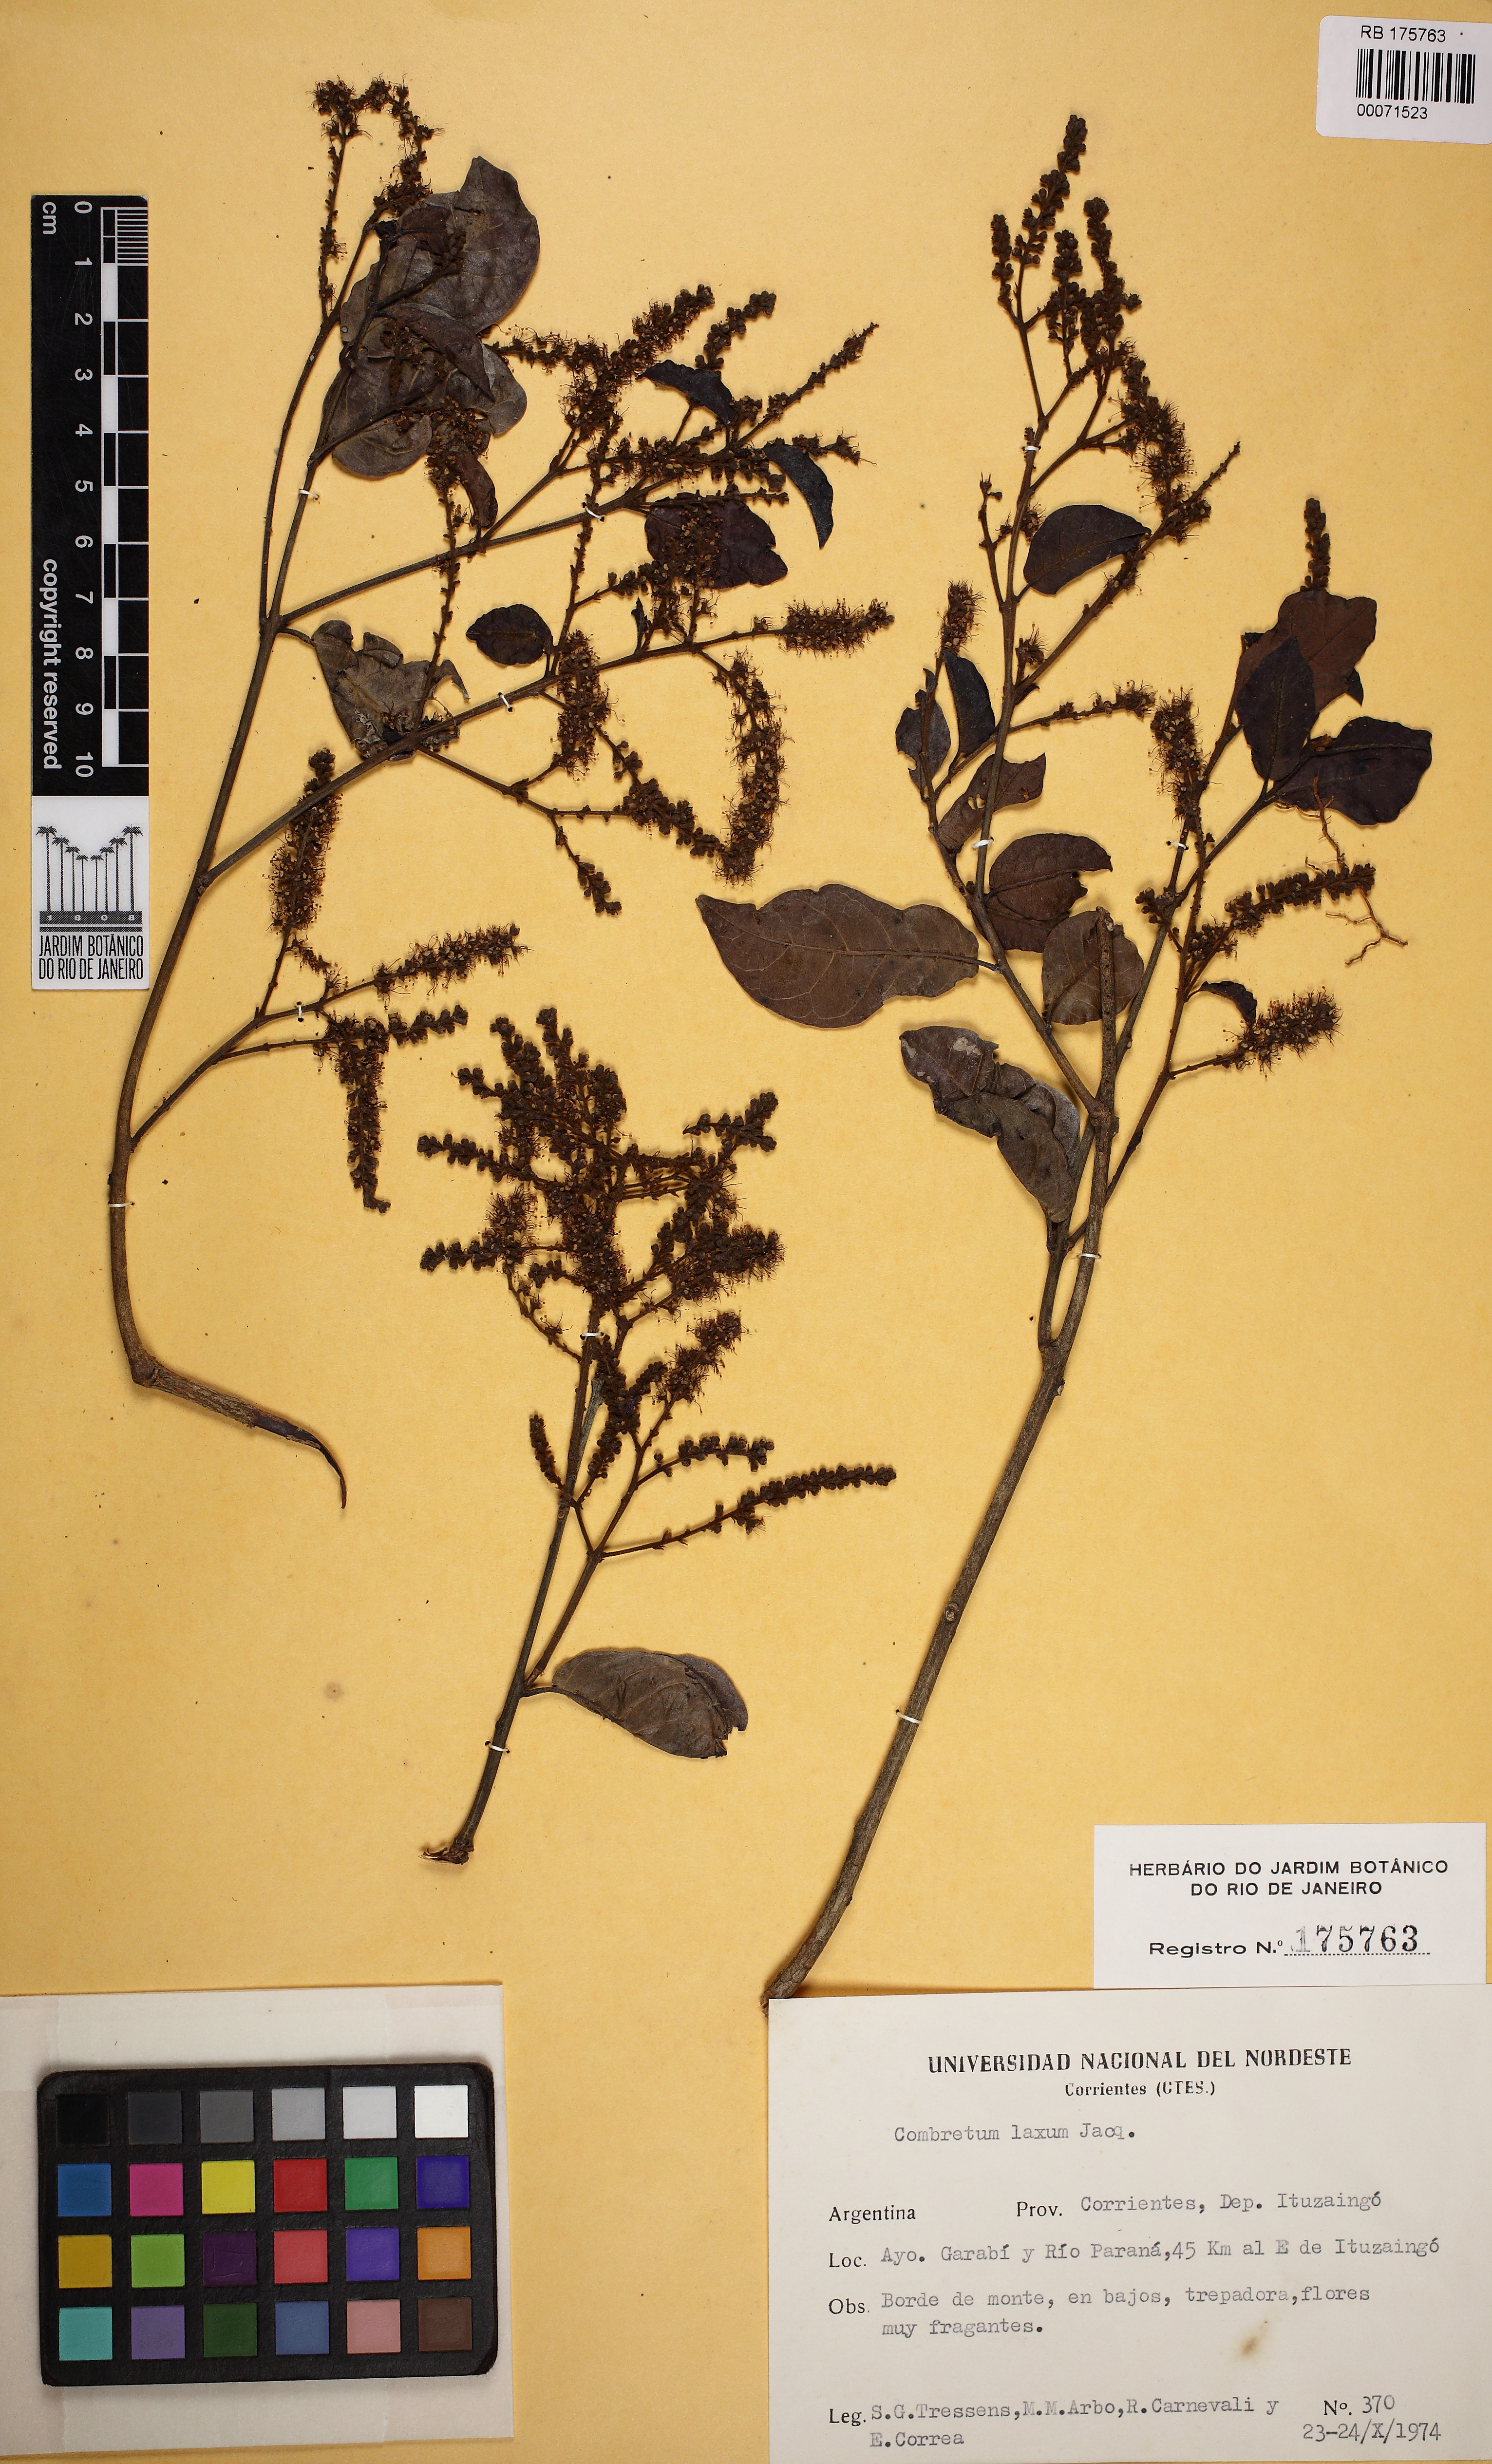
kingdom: Plantae
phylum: Tracheophyta
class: Magnoliopsida
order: Myrtales
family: Combretaceae
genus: Combretum
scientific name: Combretum laxum
